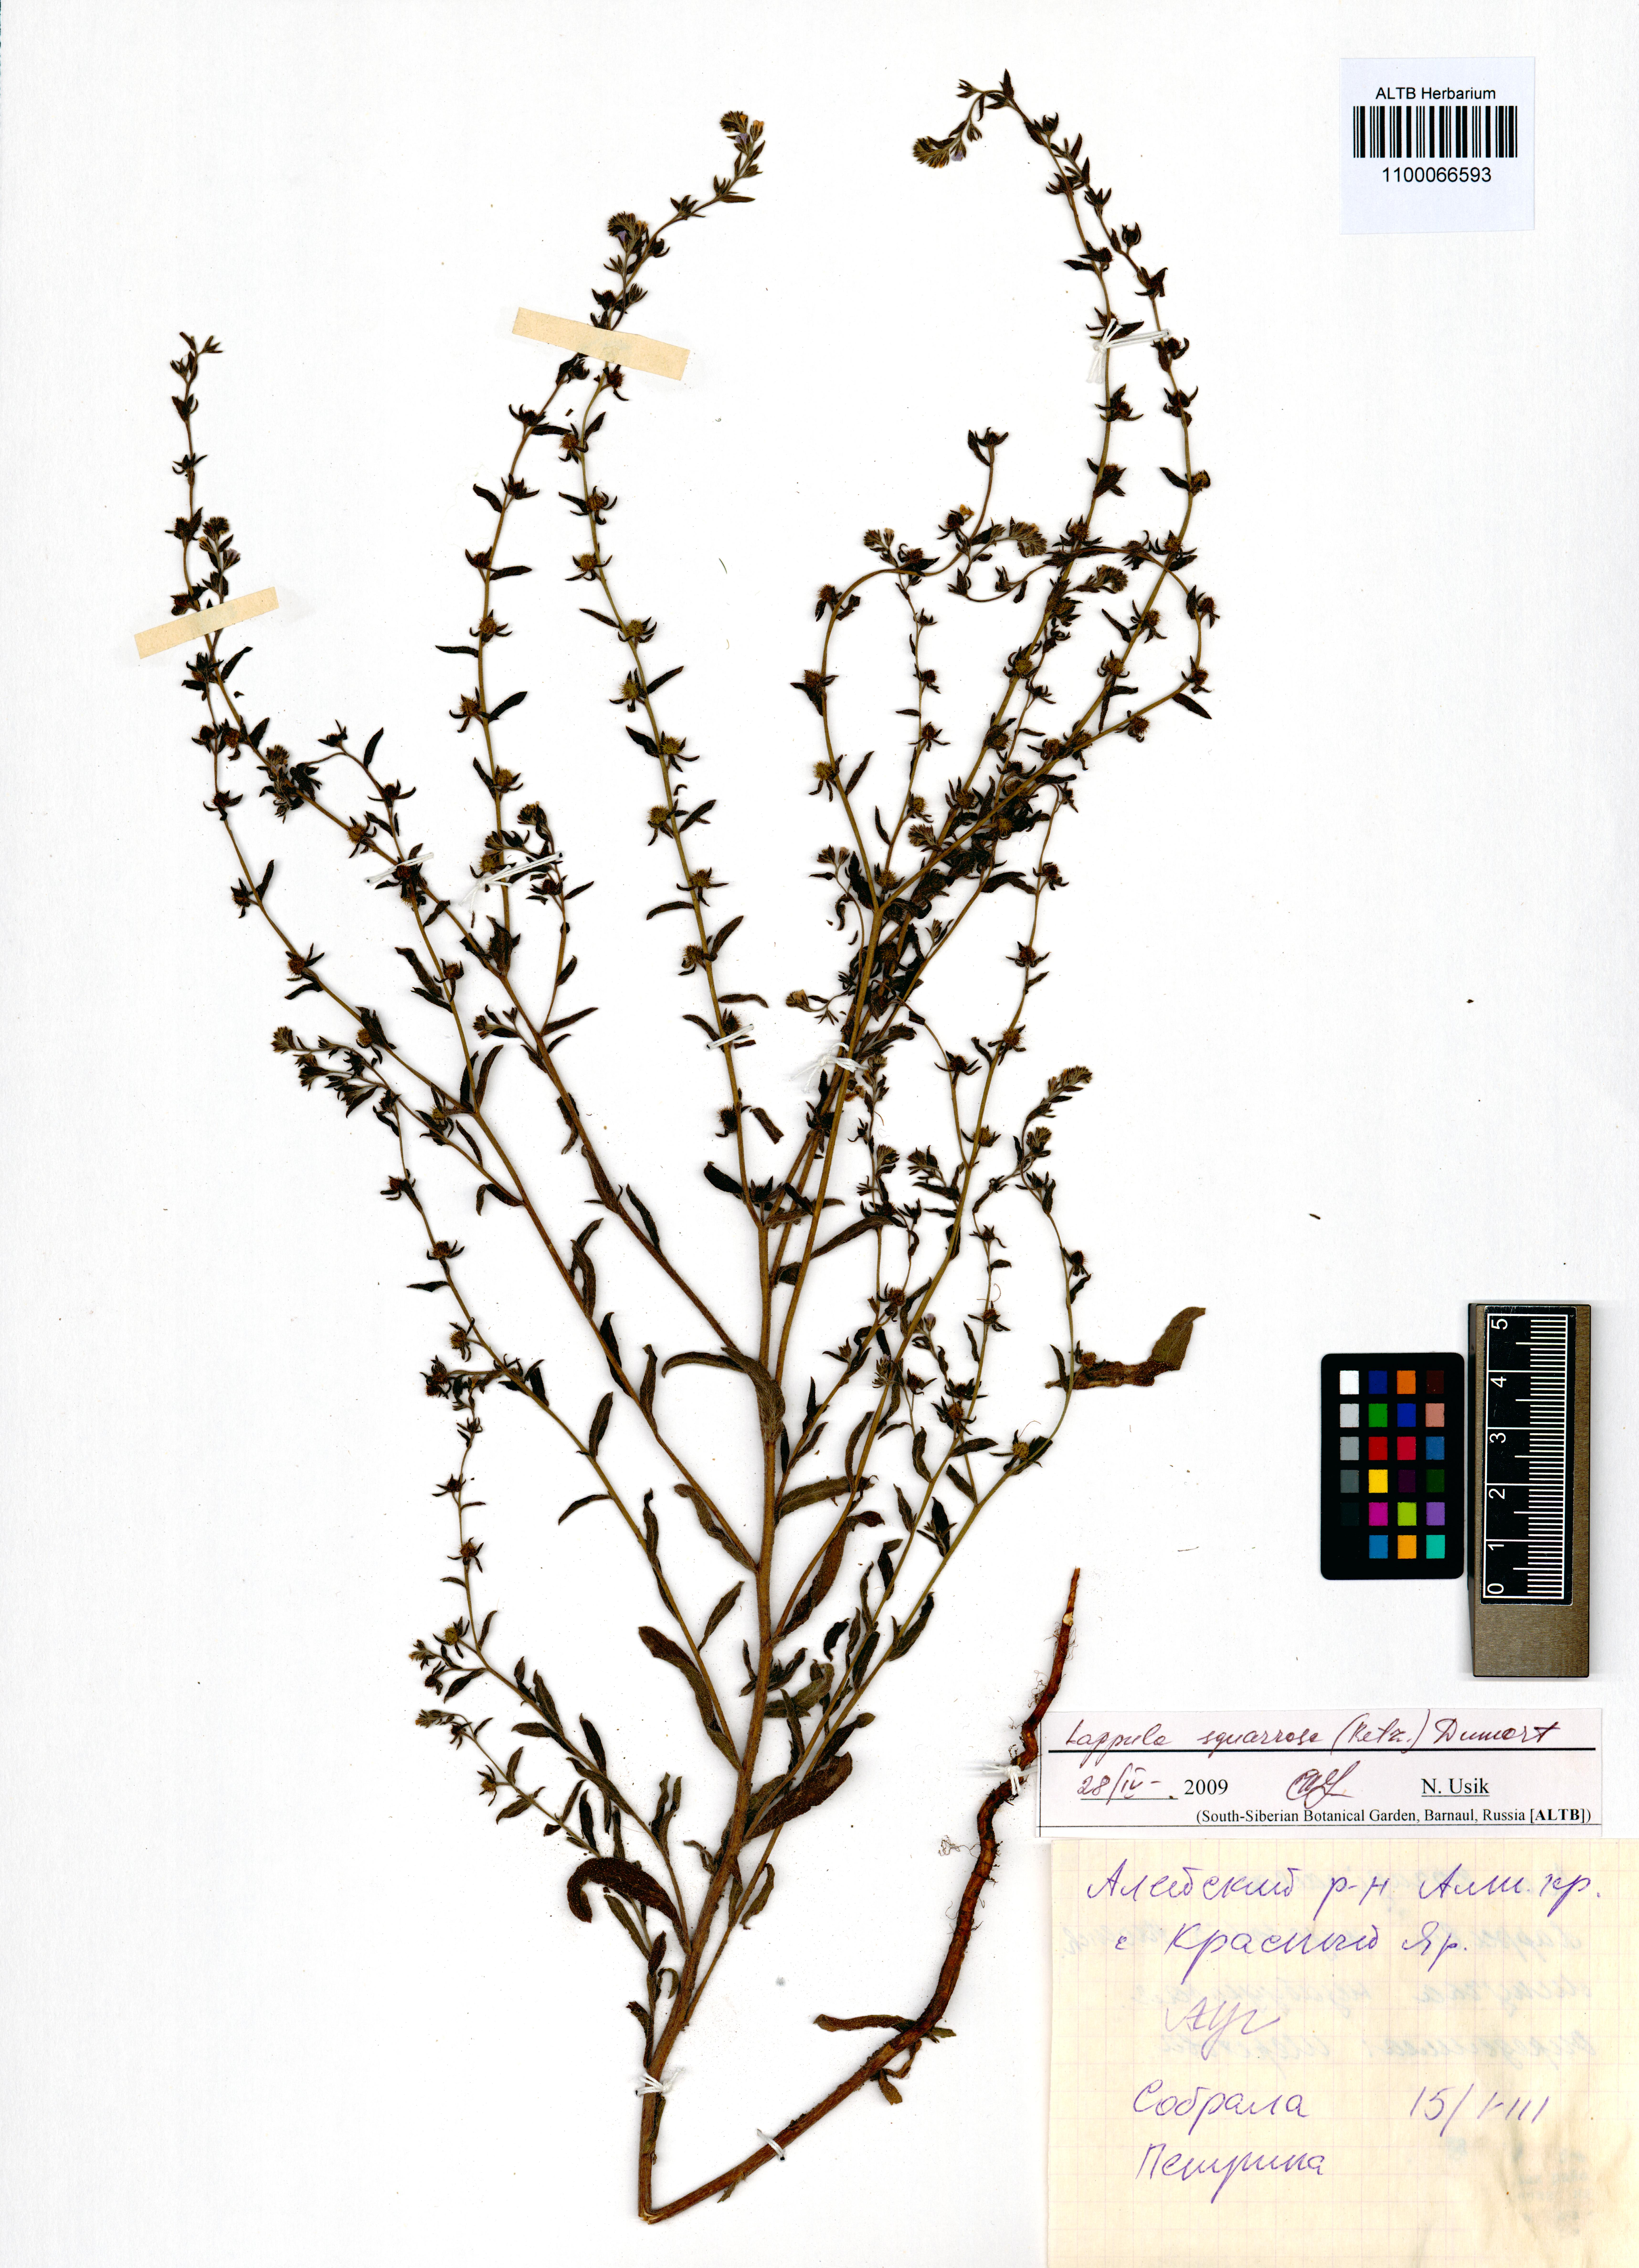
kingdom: Plantae
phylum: Tracheophyta
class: Magnoliopsida
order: Boraginales
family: Boraginaceae
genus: Lappula
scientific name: Lappula squarrosa
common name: European stickseed
